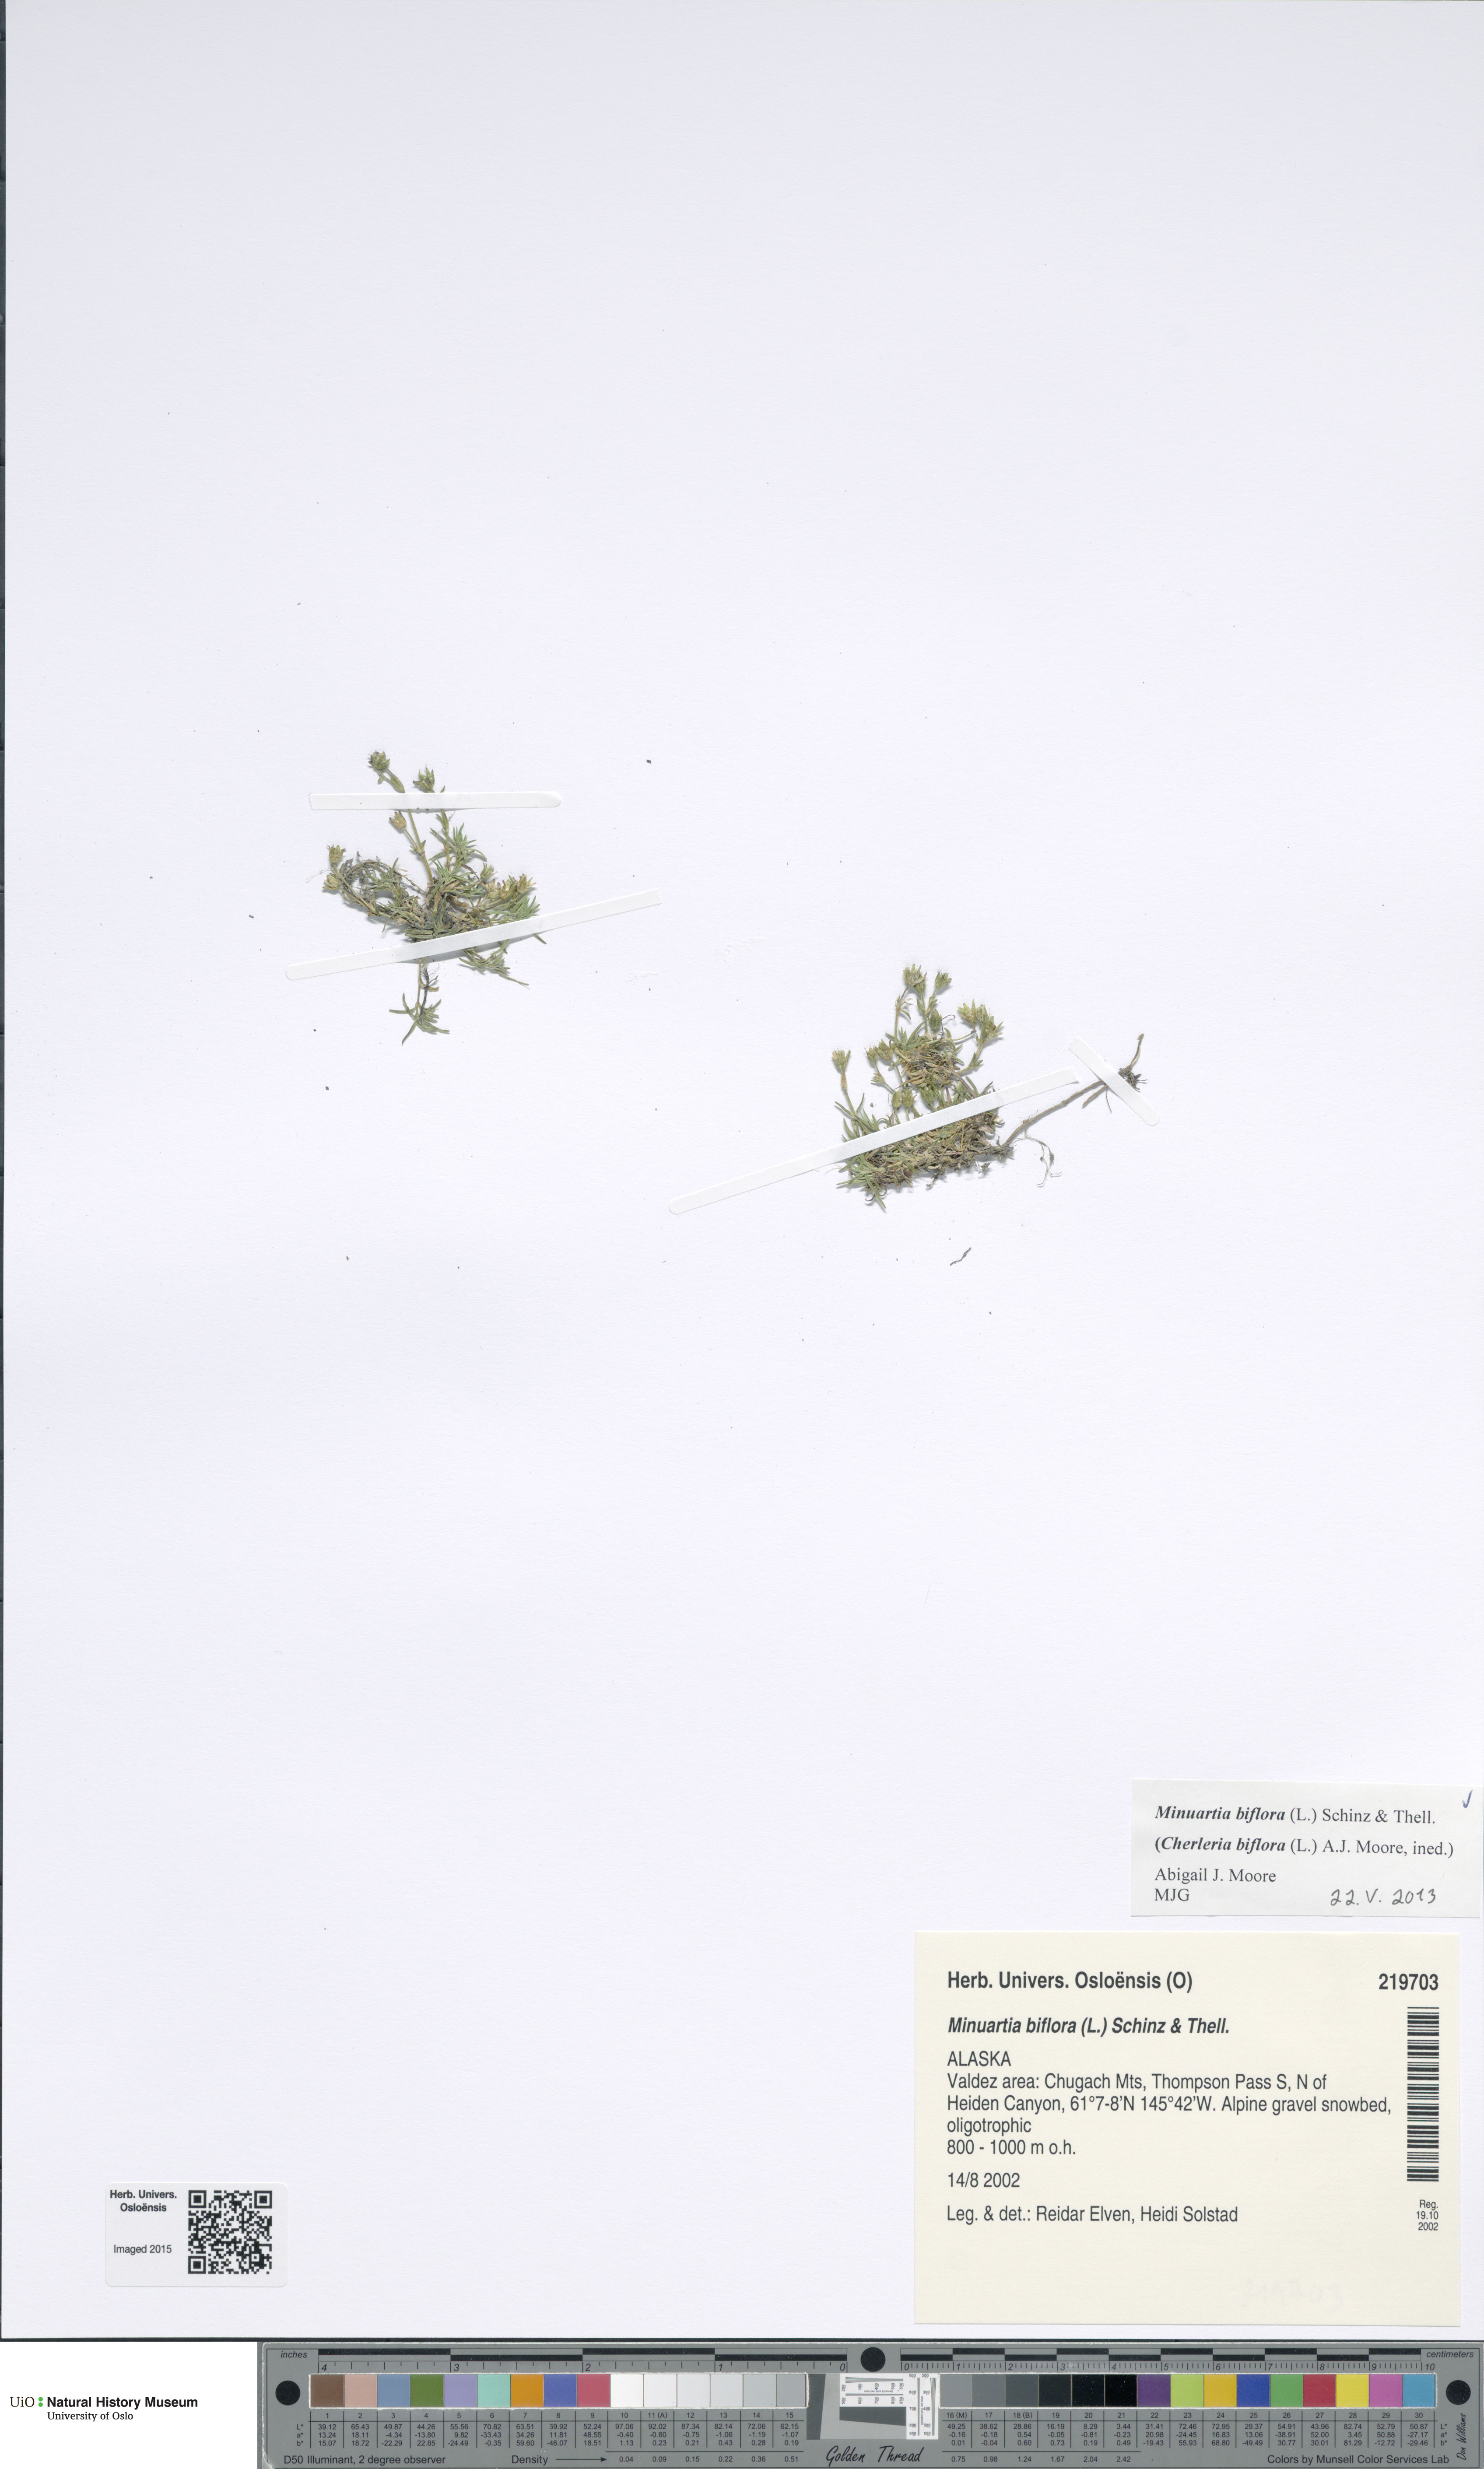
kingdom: Plantae
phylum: Tracheophyta
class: Magnoliopsida
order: Caryophyllales
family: Caryophyllaceae
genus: Cherleria
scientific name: Cherleria biflora
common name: Mountain sandwort
